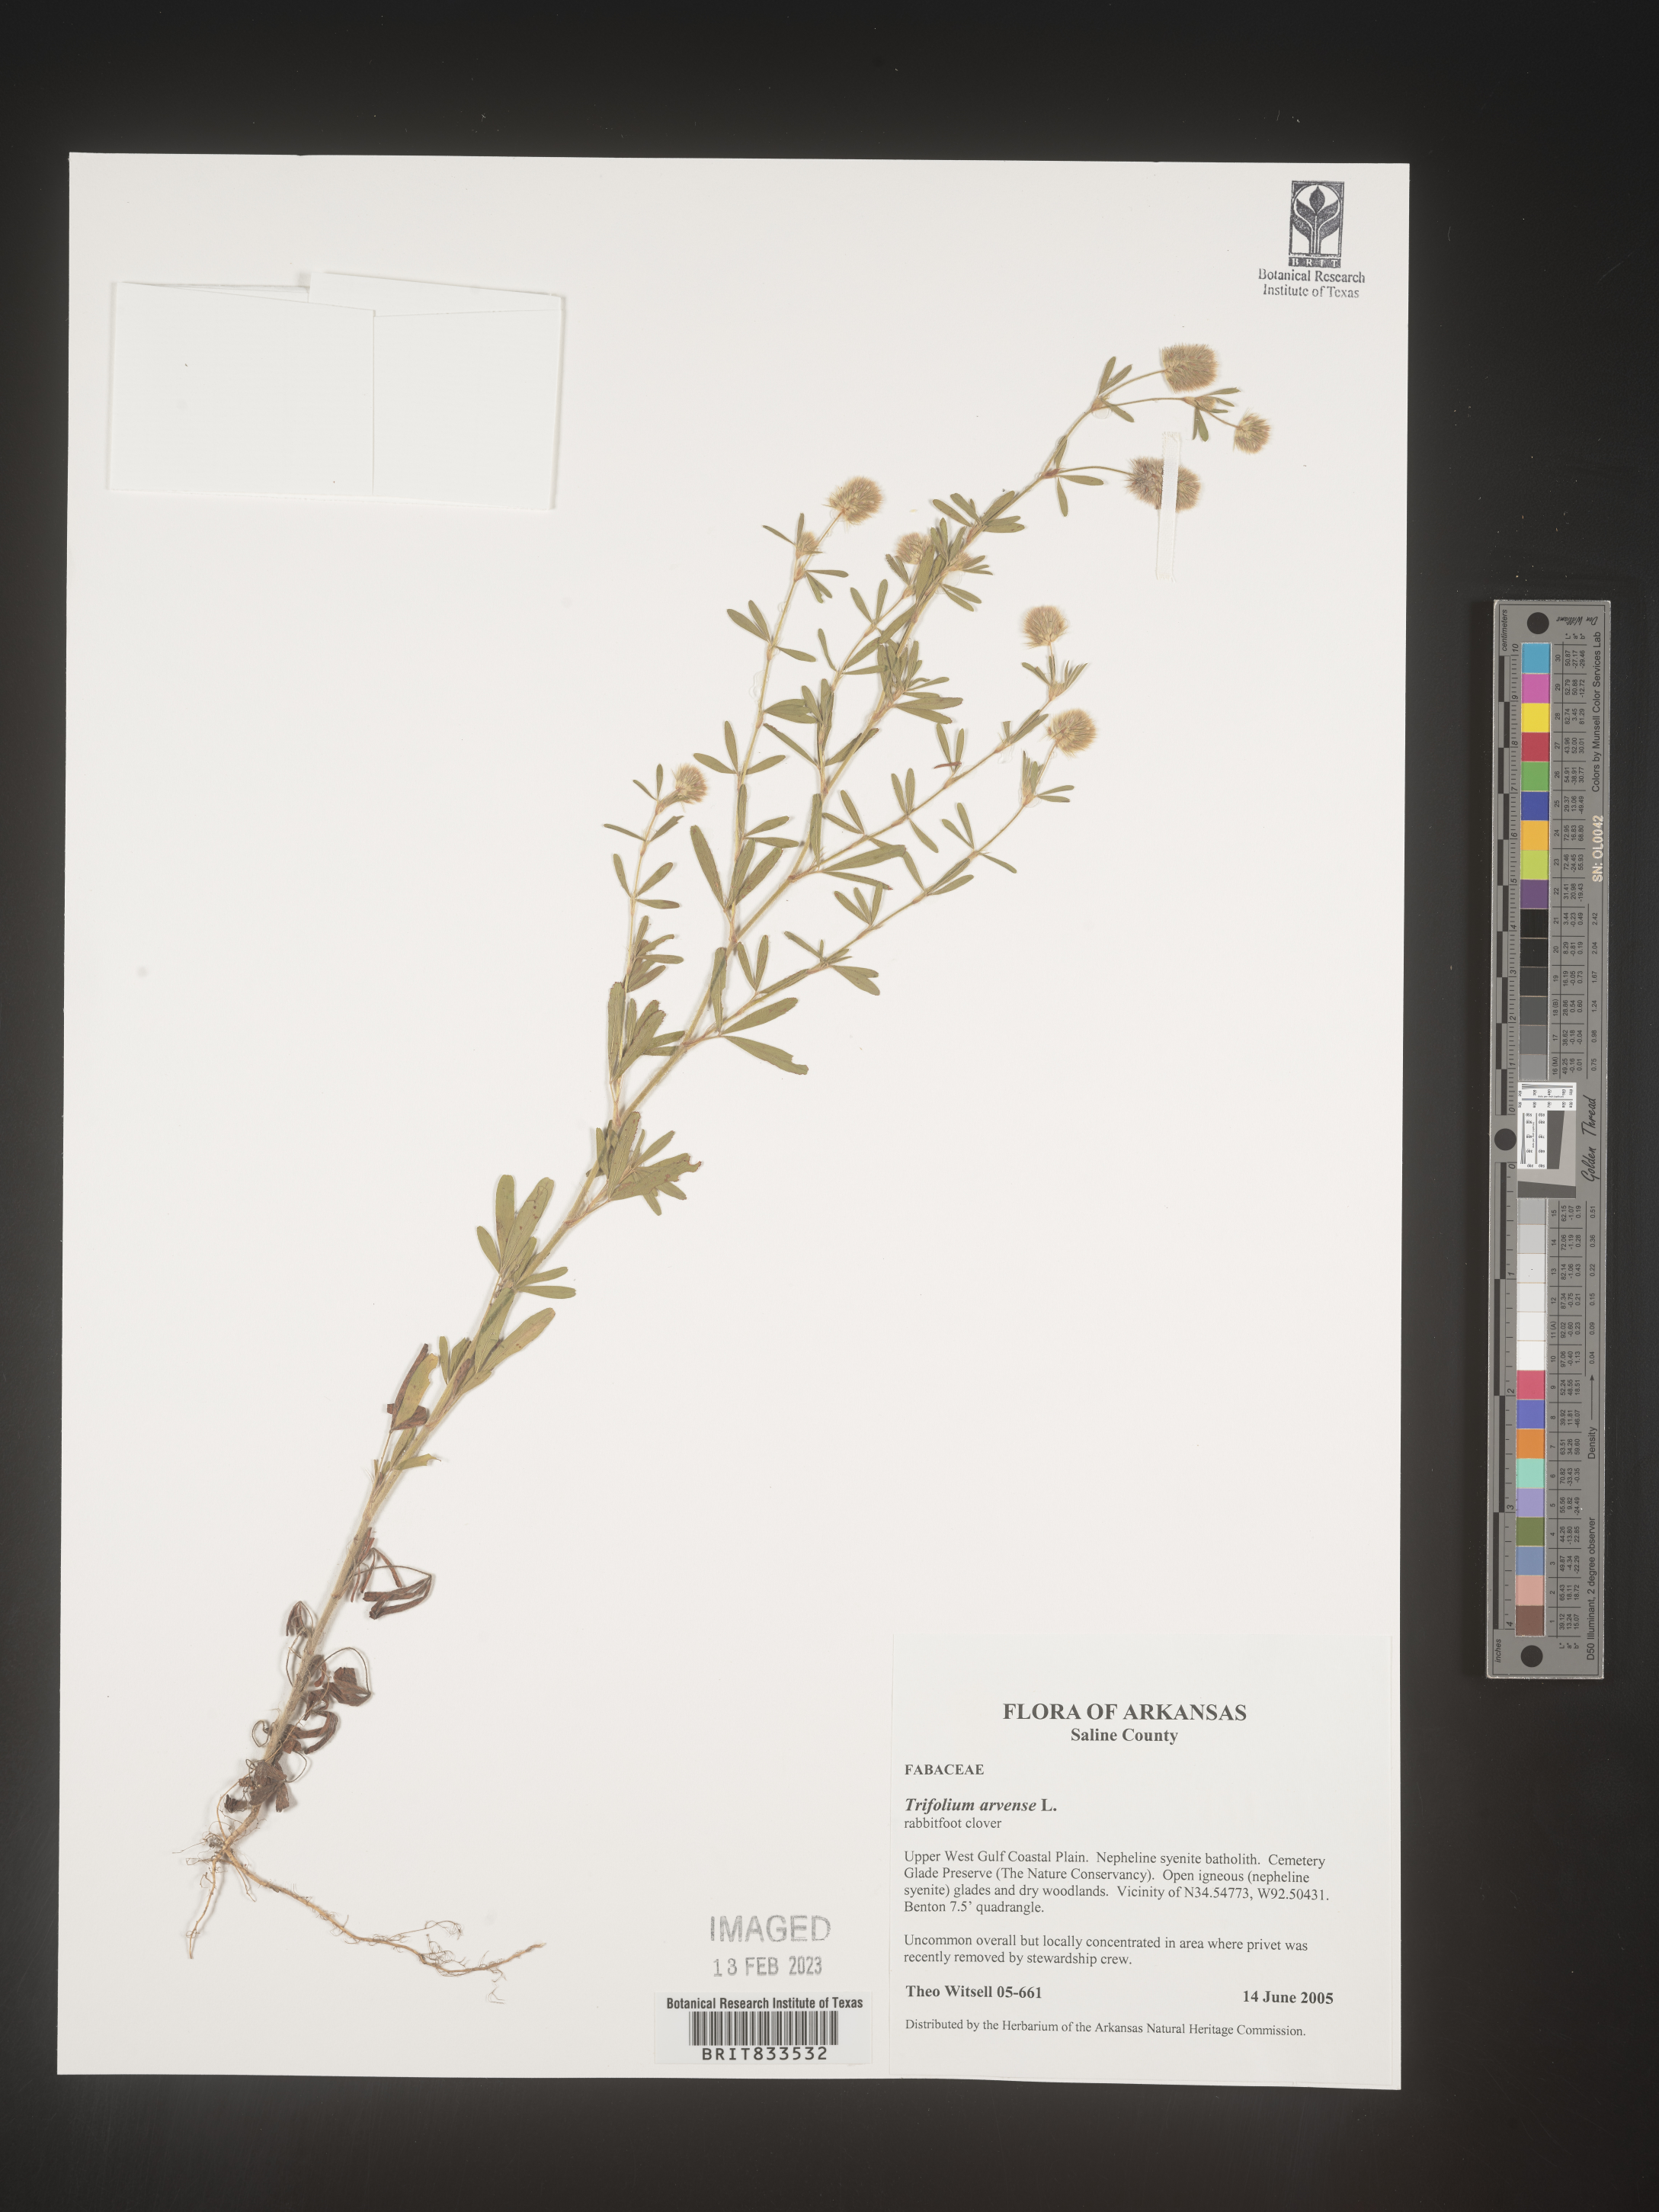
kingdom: Plantae
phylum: Tracheophyta
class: Magnoliopsida
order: Fabales
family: Fabaceae
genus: Trifolium
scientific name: Trifolium arvense
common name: Hare's-foot clover
